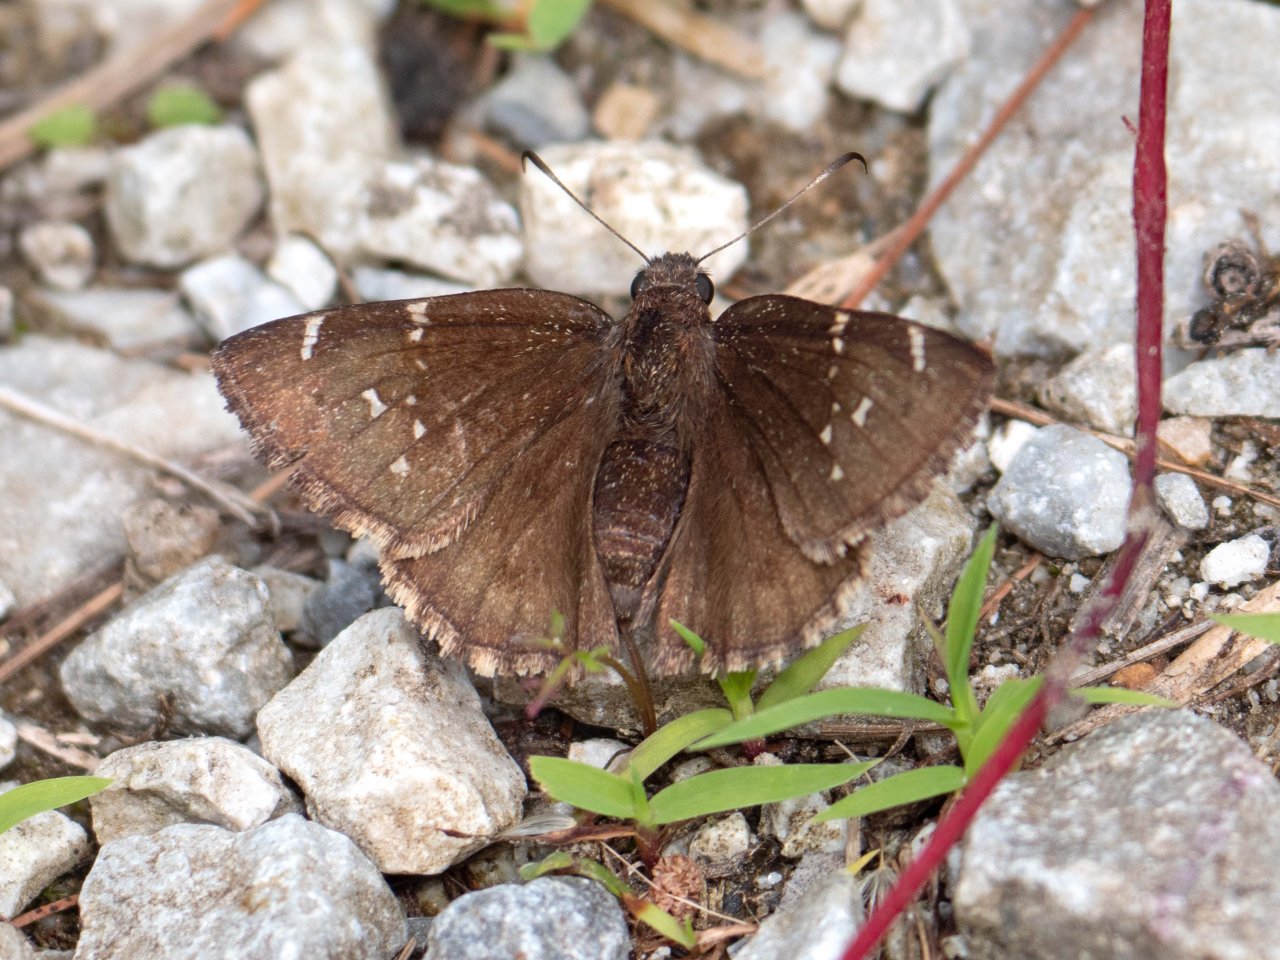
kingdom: Animalia
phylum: Arthropoda
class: Insecta
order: Lepidoptera
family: Hesperiidae
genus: Autochton
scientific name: Autochton
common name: Northern Cloudywing
